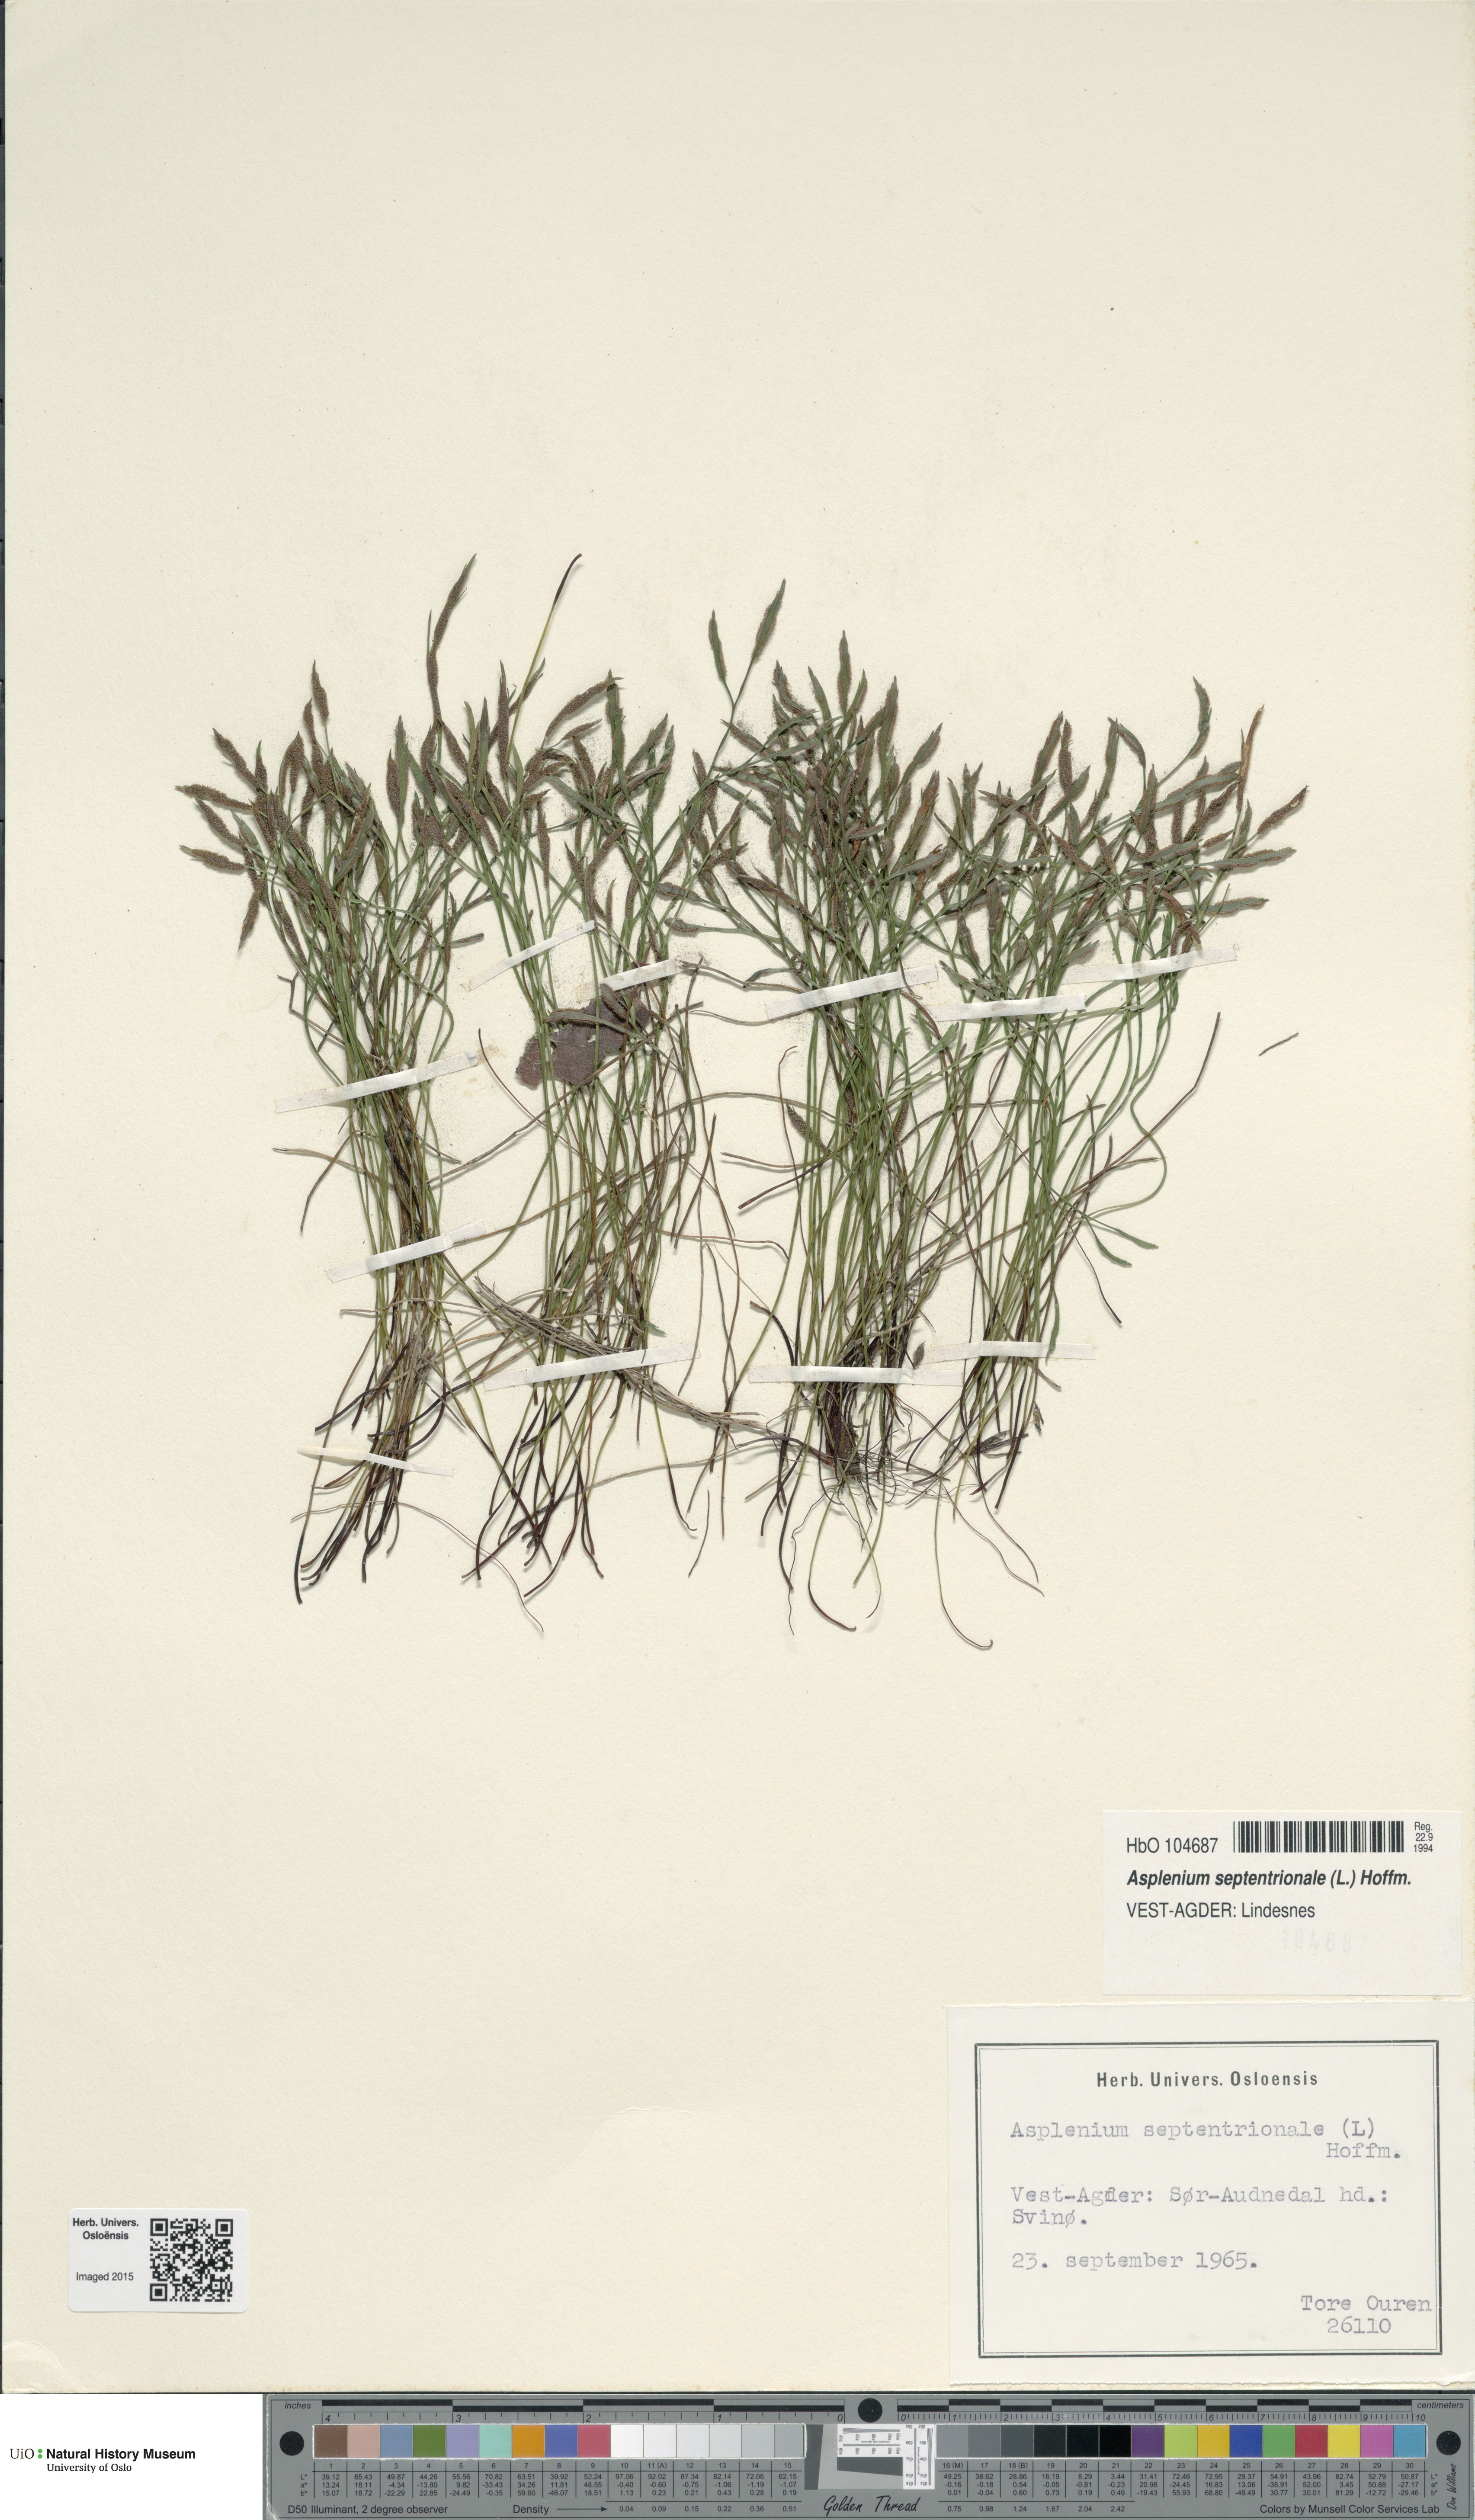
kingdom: Plantae
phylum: Tracheophyta
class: Polypodiopsida
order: Polypodiales
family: Aspleniaceae
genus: Asplenium
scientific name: Asplenium septentrionale
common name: Forked spleenwort
